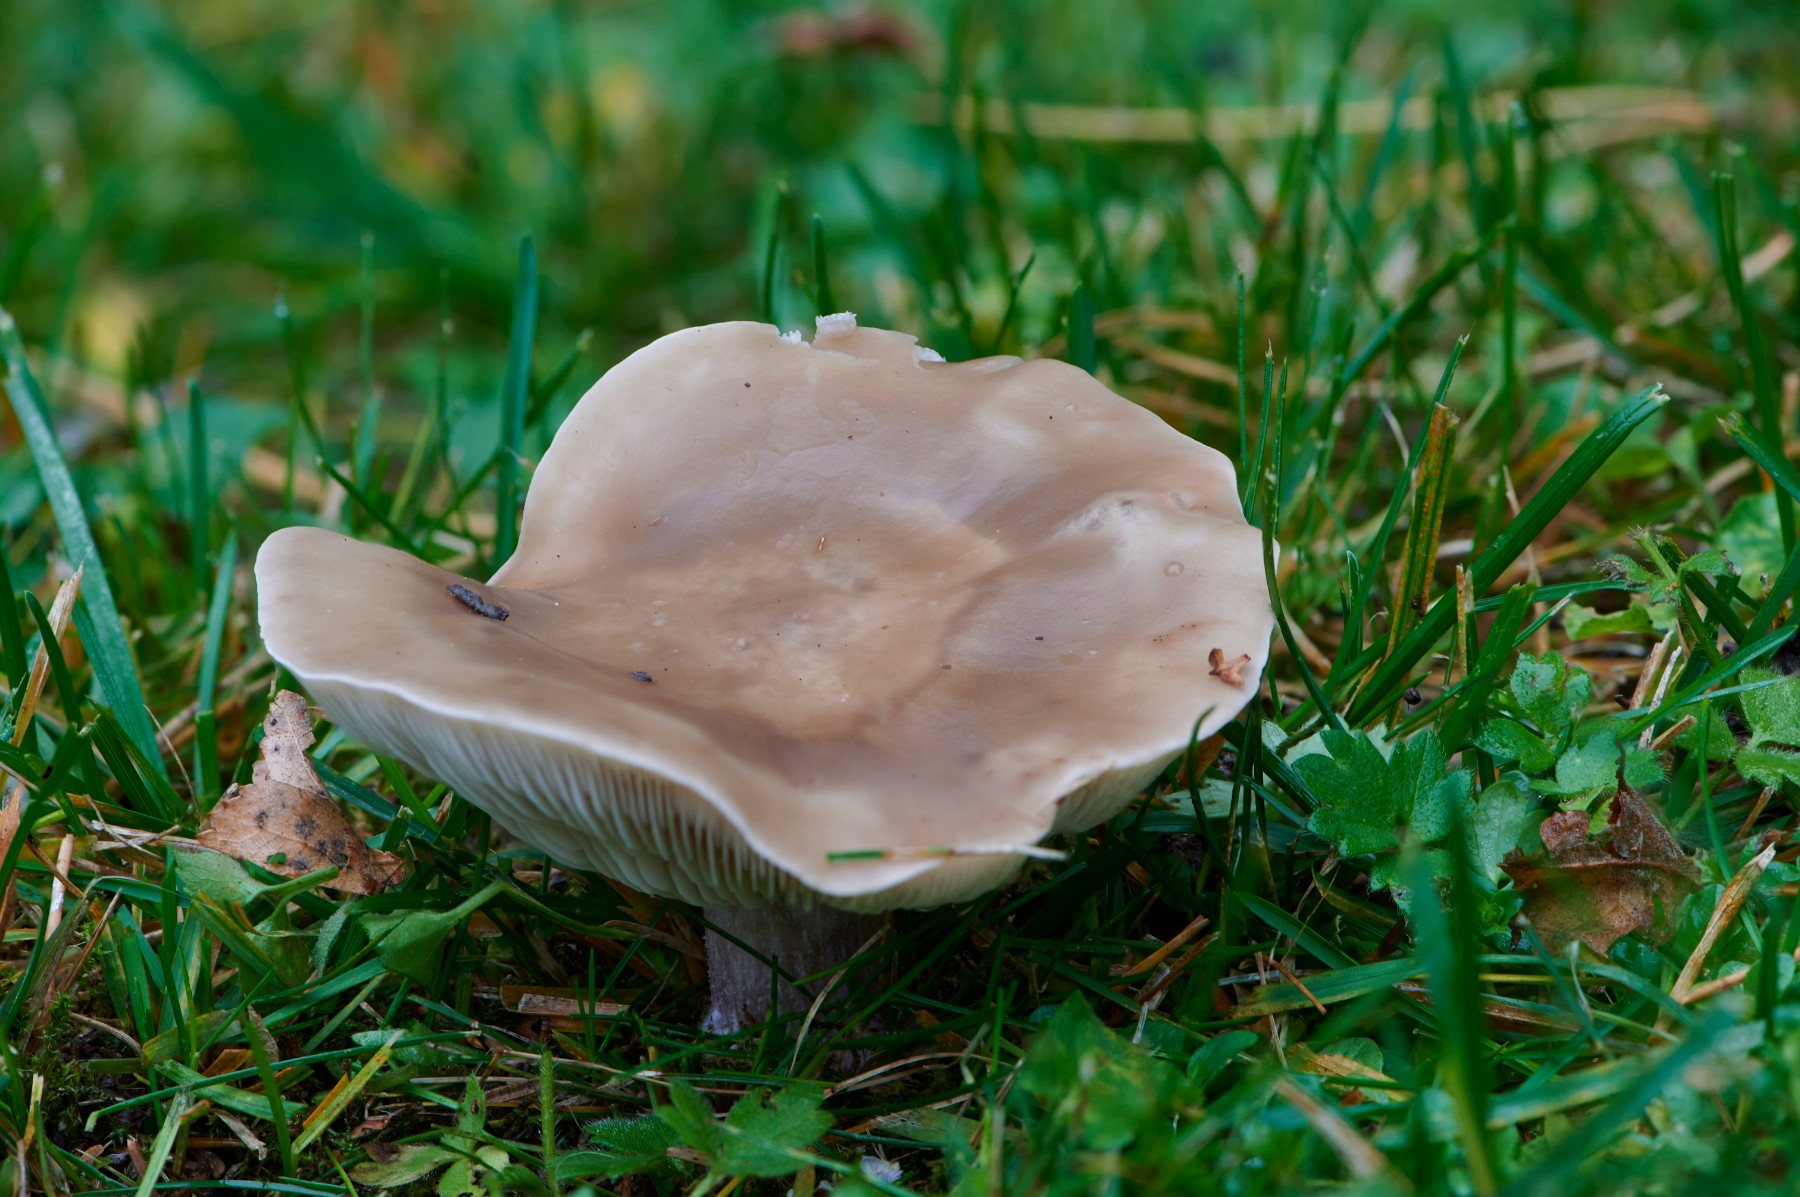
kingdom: Fungi
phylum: Basidiomycota
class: Agaricomycetes
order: Agaricales
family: Tricholomataceae
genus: Lepista
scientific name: Lepista personata
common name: bleg hekseringshat
